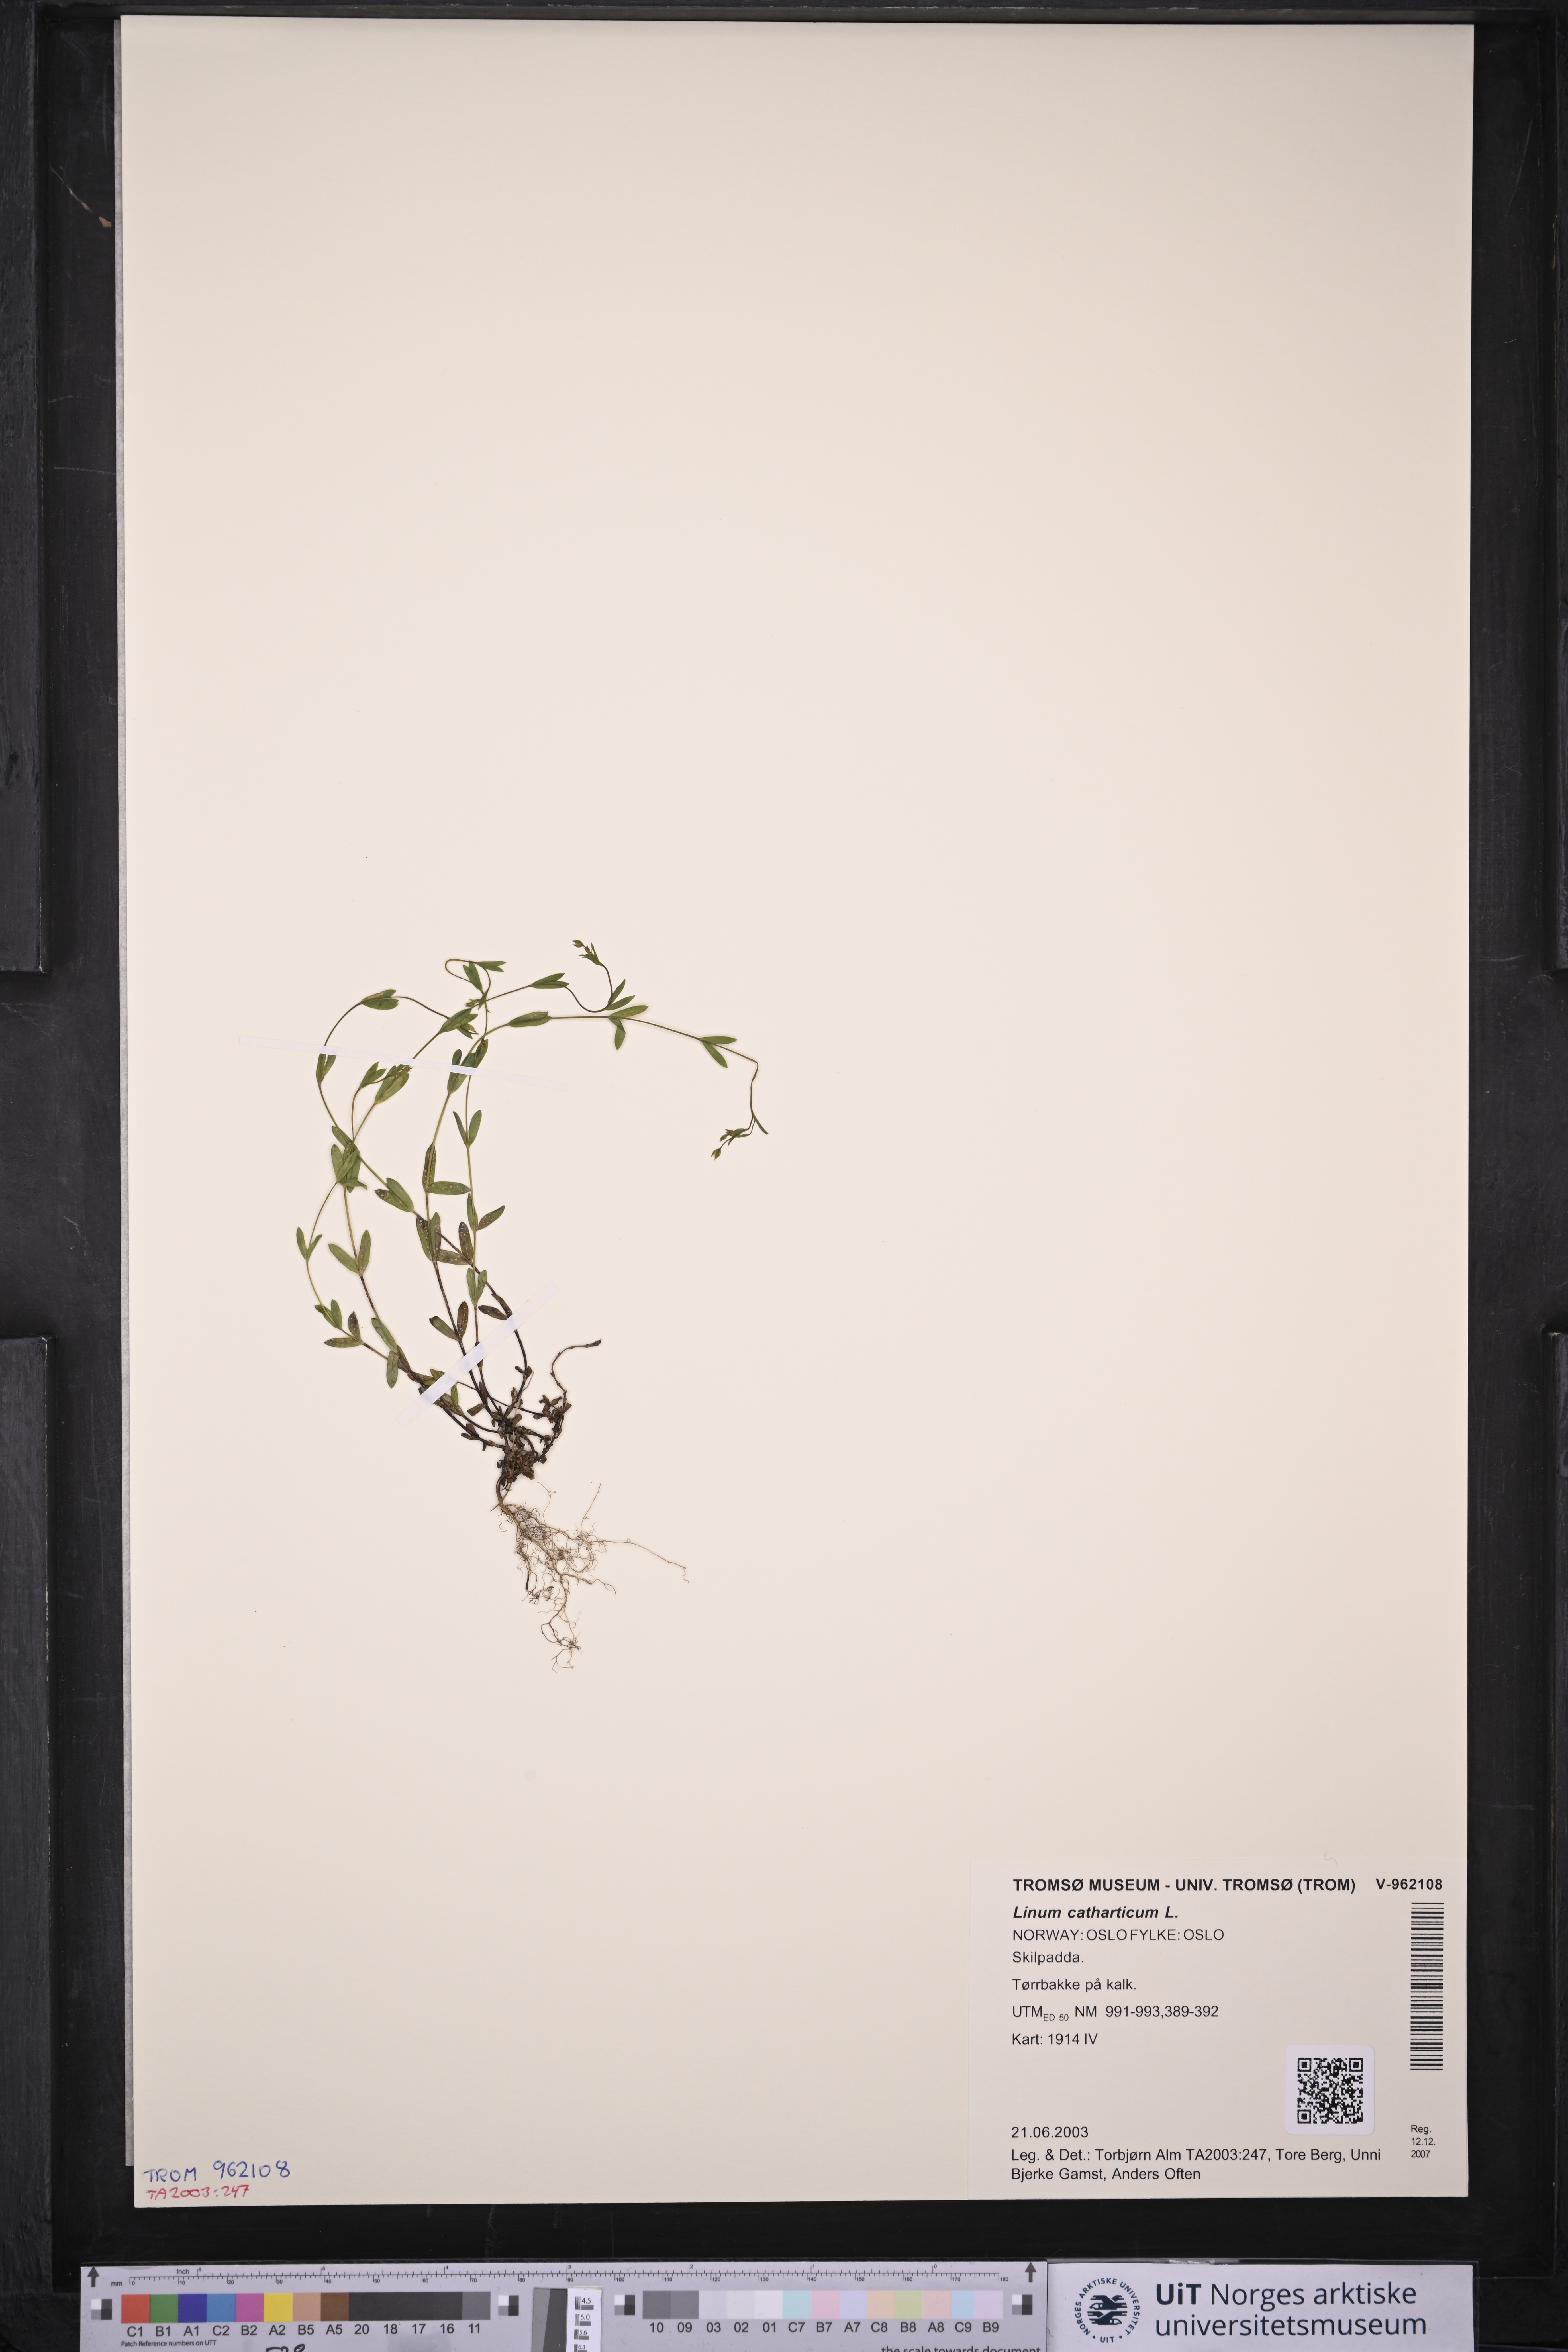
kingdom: Plantae
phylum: Tracheophyta
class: Magnoliopsida
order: Malpighiales
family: Linaceae
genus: Linum
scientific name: Linum catharticum
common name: Fairy flax
